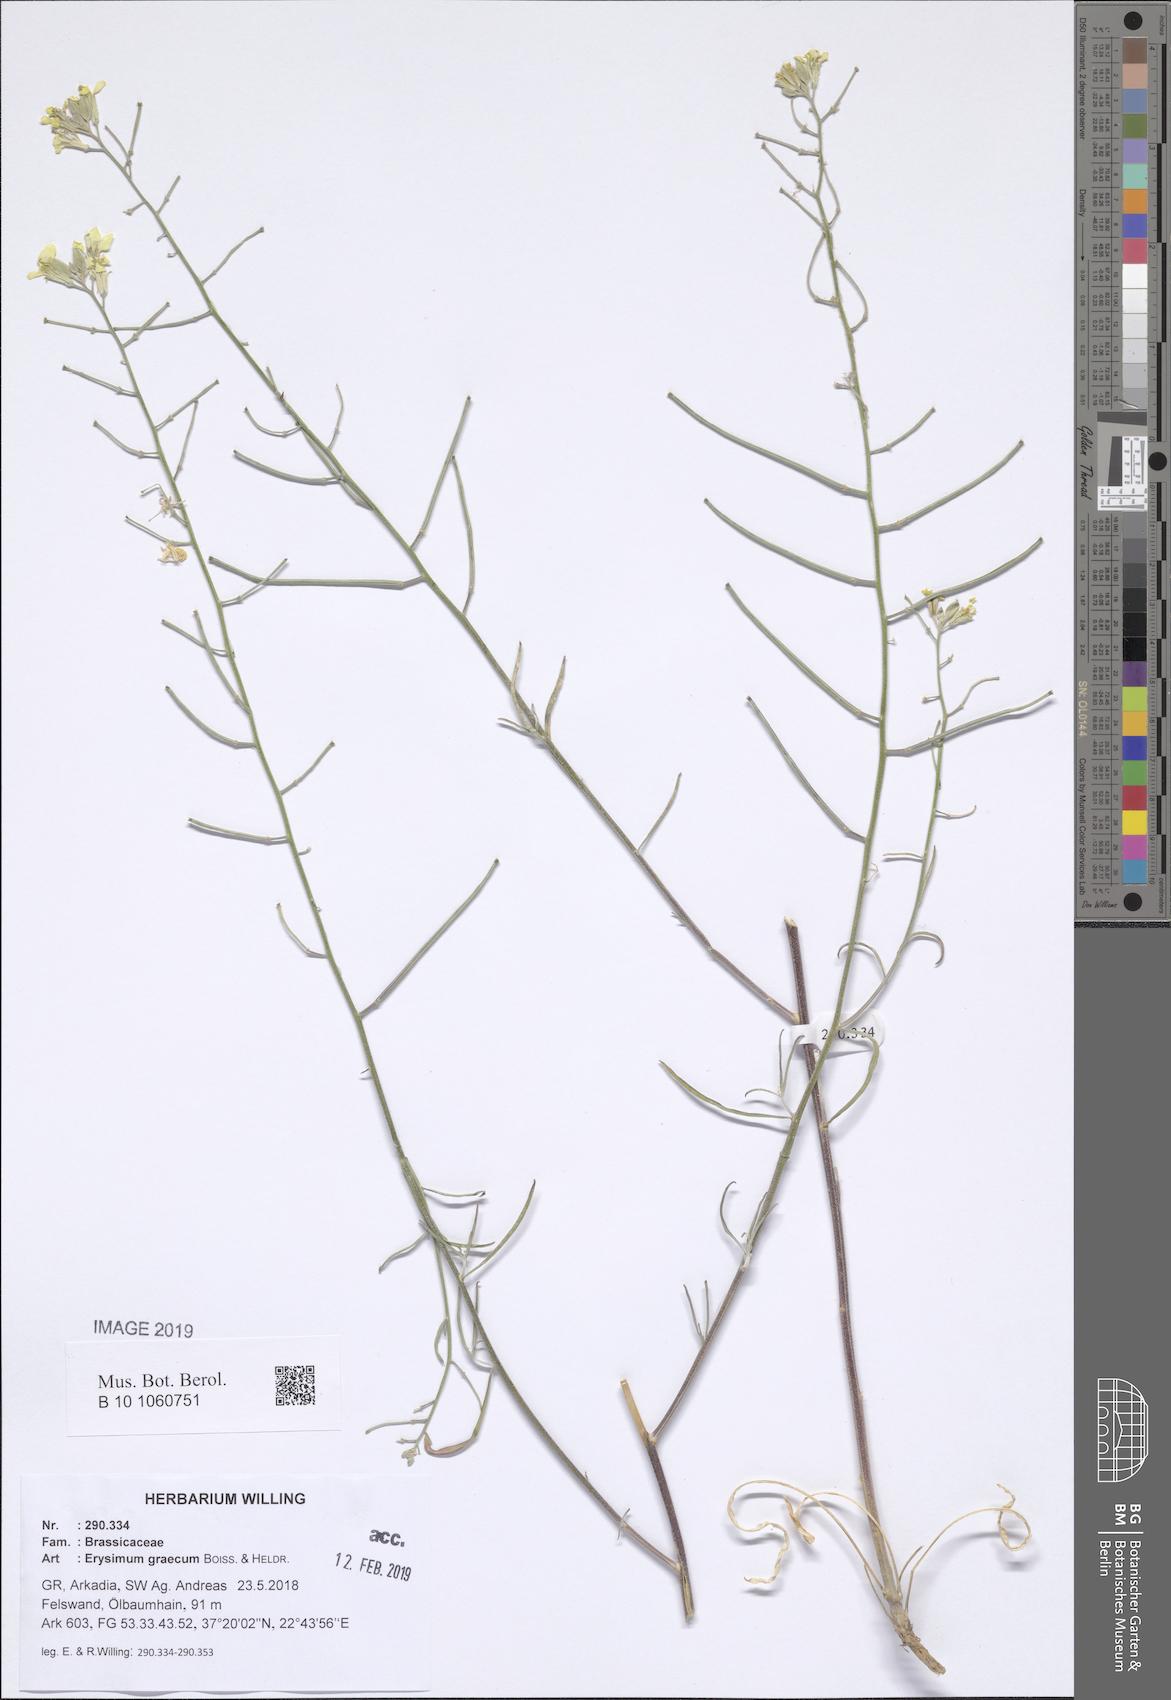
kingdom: Plantae
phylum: Tracheophyta
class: Magnoliopsida
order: Brassicales
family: Brassicaceae
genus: Erysimum
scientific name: Erysimum graecum
